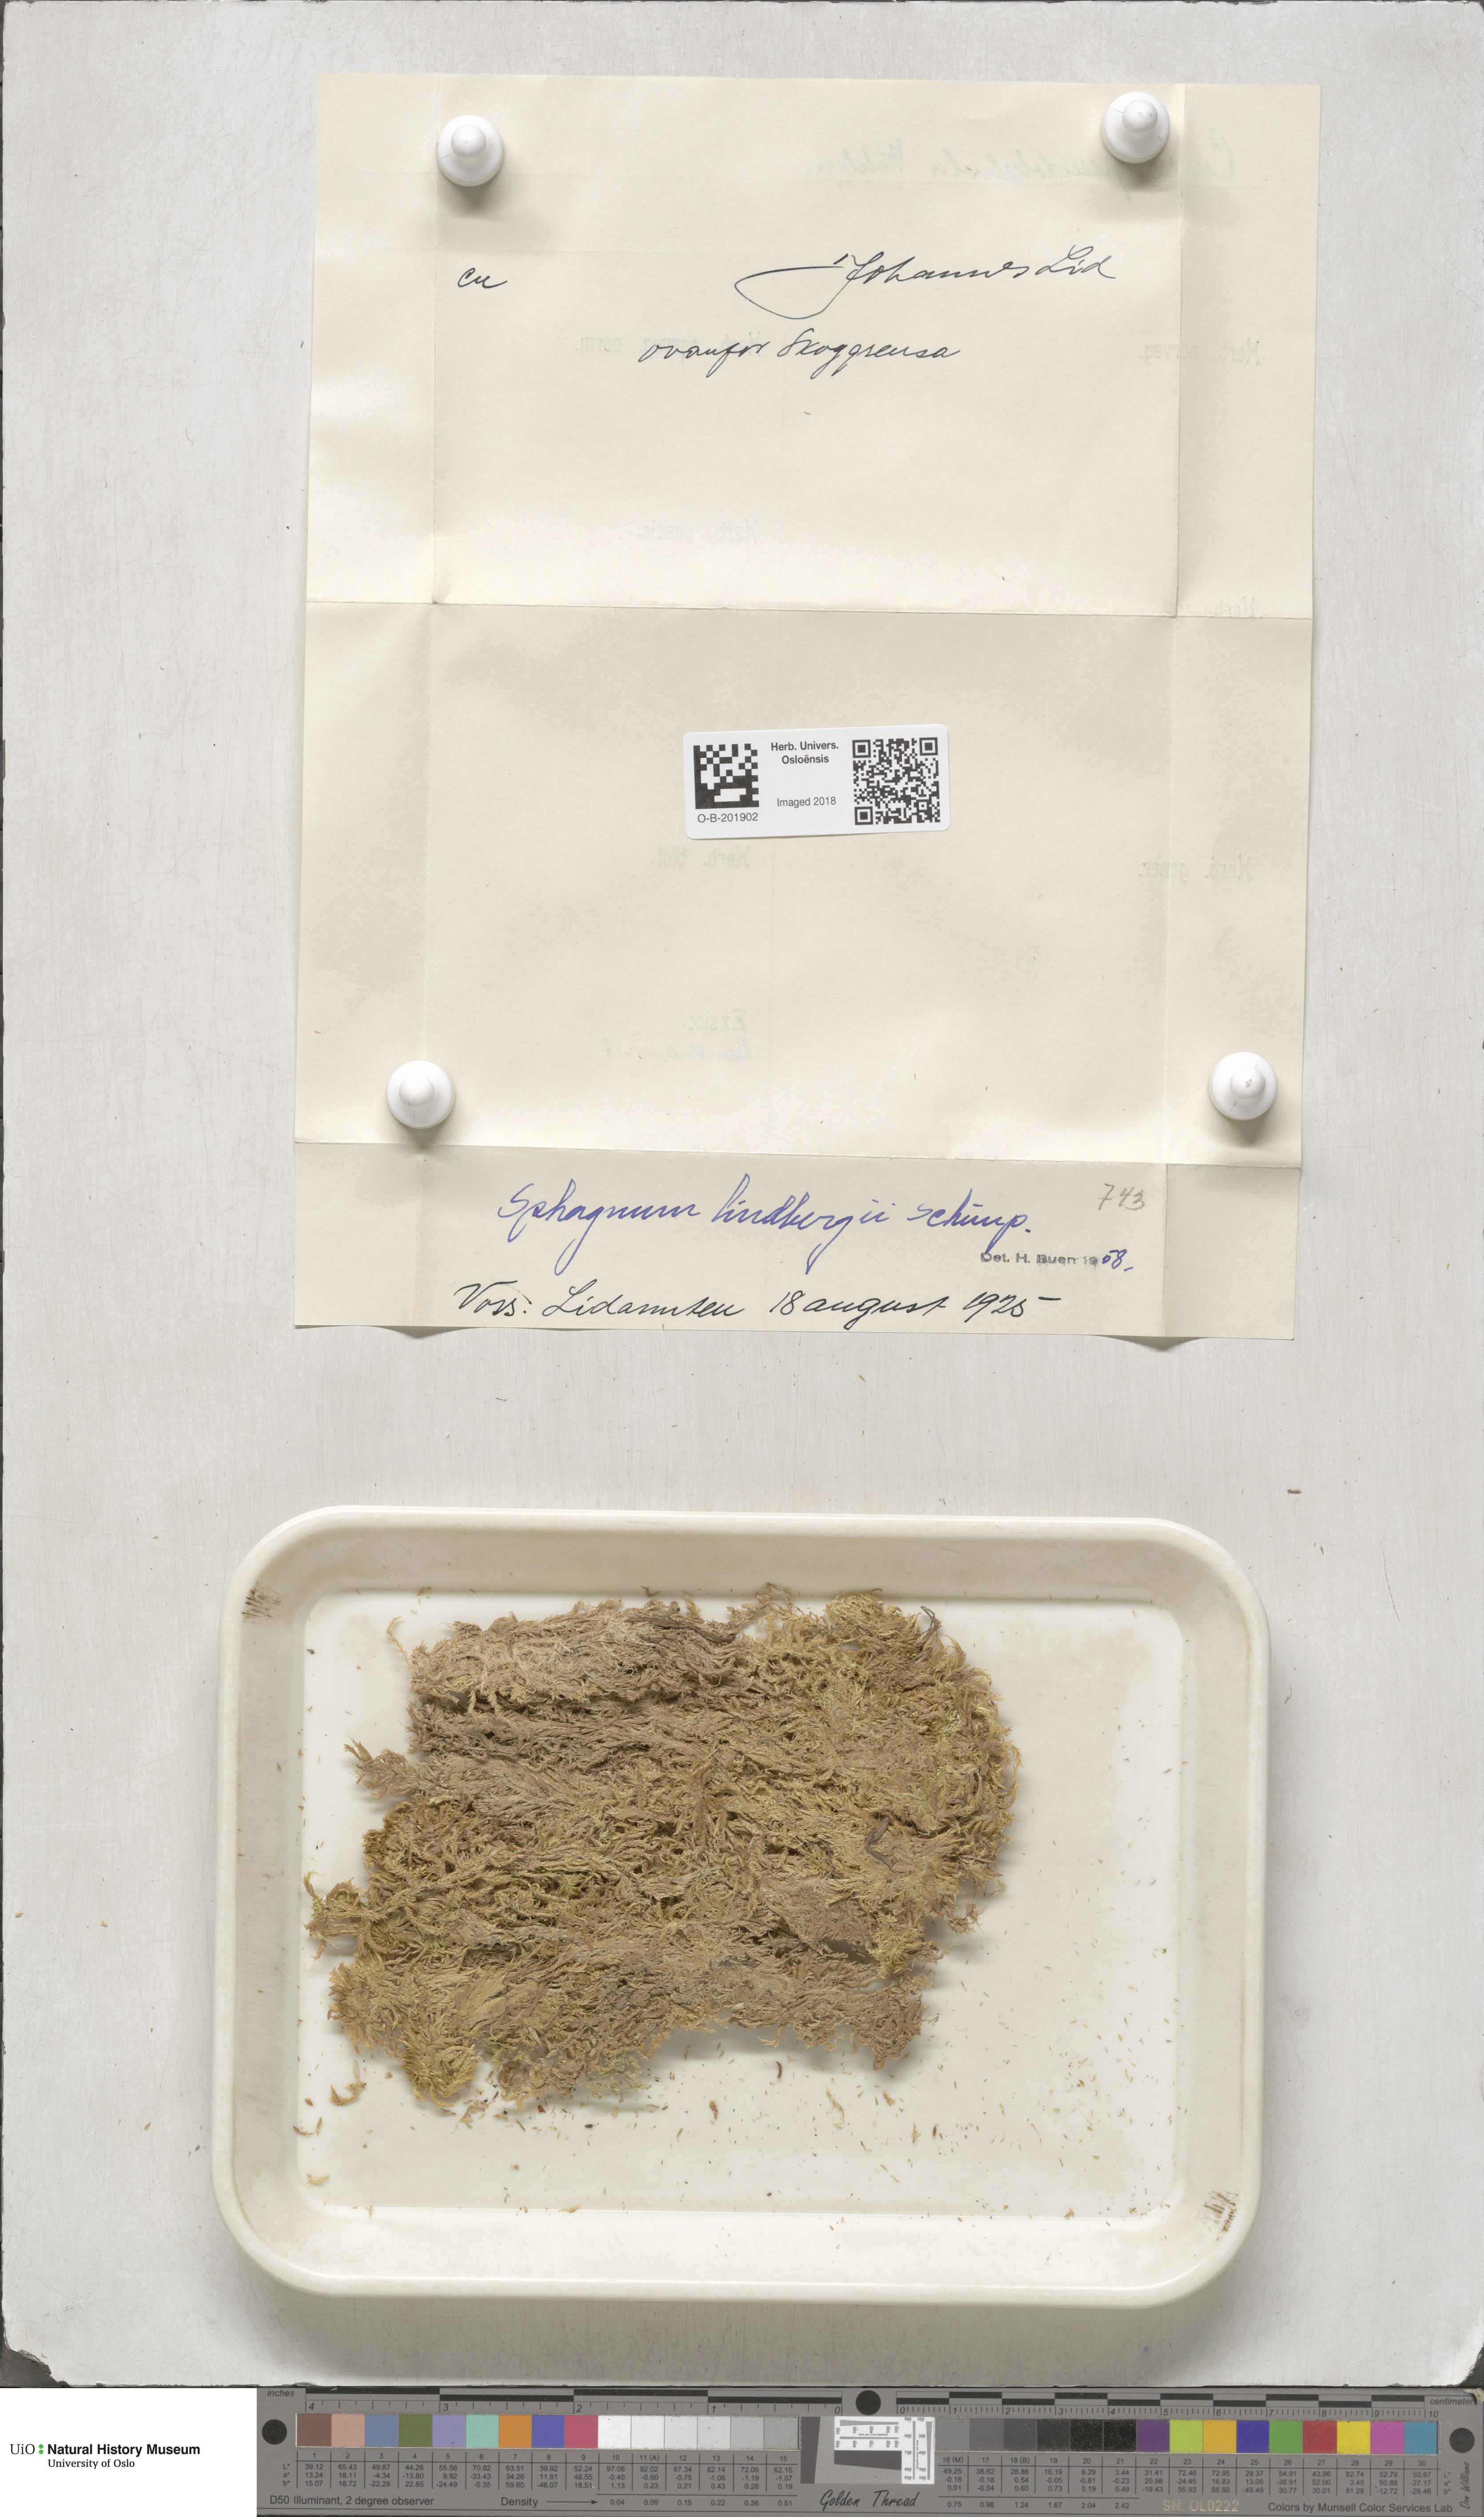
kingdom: Plantae
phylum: Bryophyta
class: Sphagnopsida
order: Sphagnales
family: Sphagnaceae
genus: Sphagnum
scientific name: Sphagnum lindbergii
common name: Lindberg's peat moss
